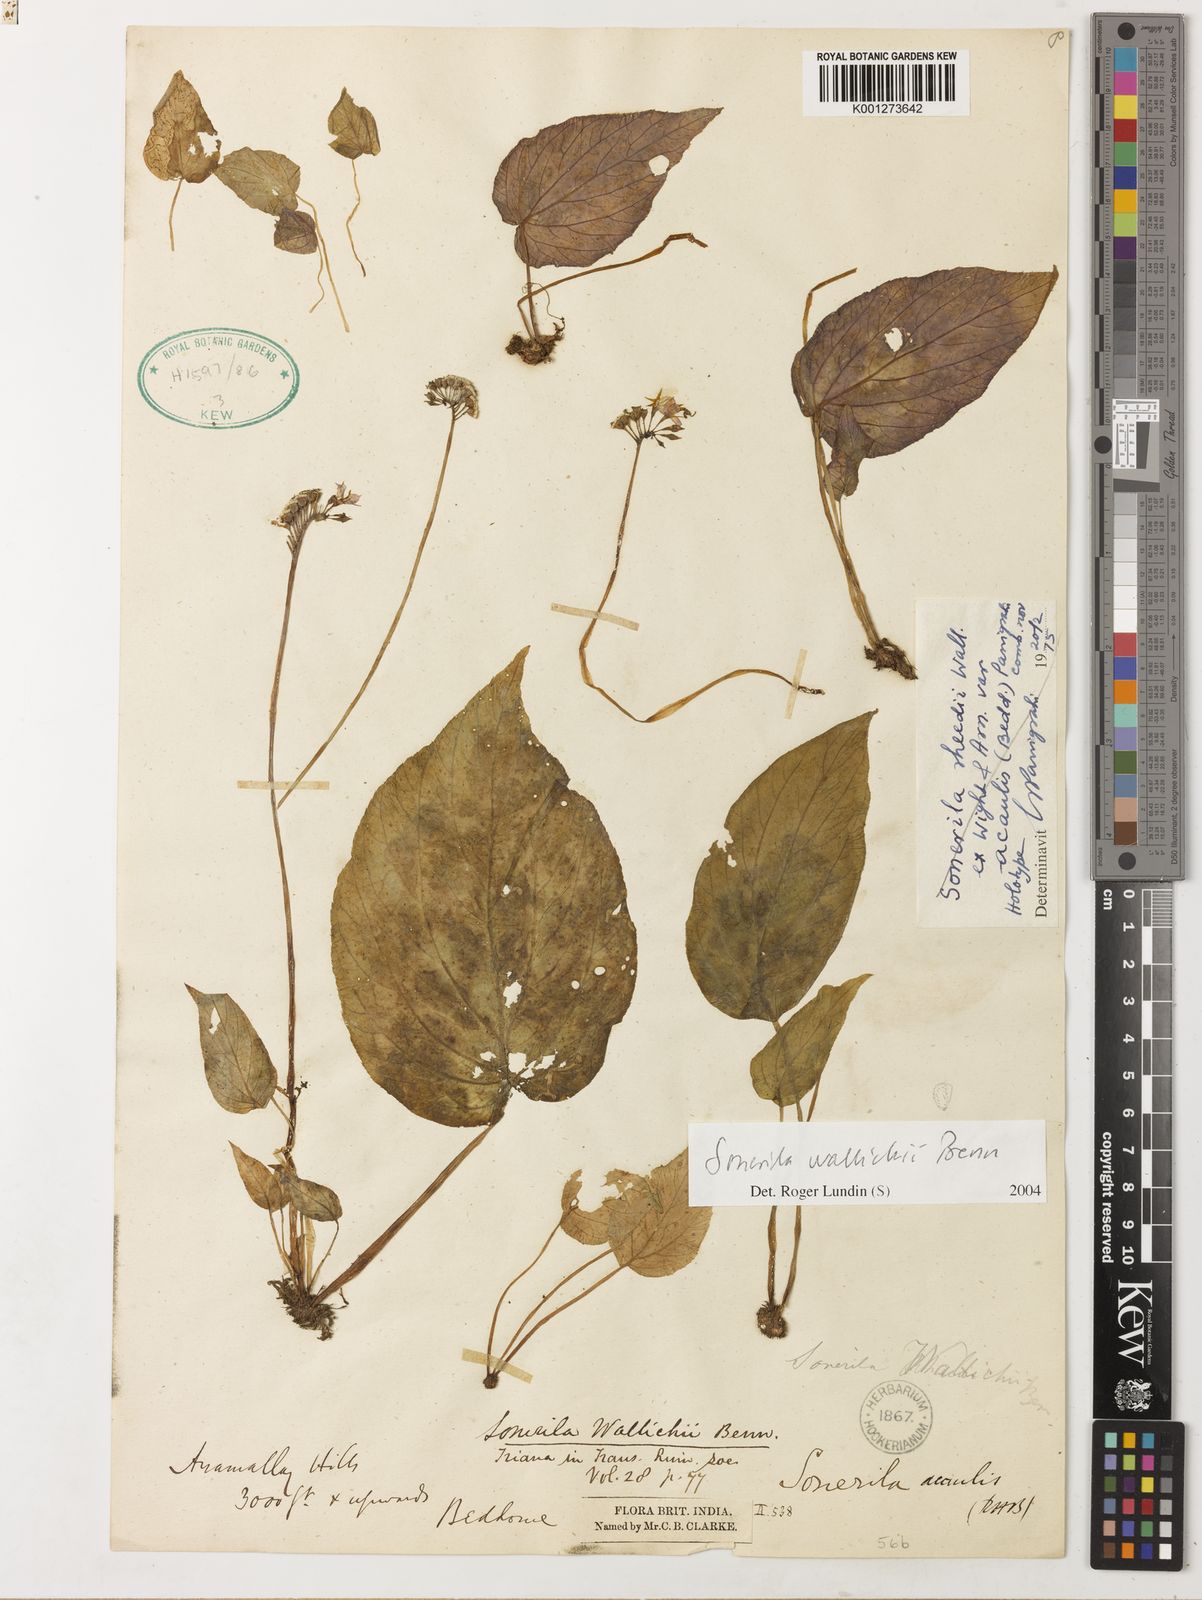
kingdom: Plantae
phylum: Tracheophyta
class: Magnoliopsida
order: Myrtales
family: Melastomataceae
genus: Sonerila
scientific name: Sonerila wallichii
